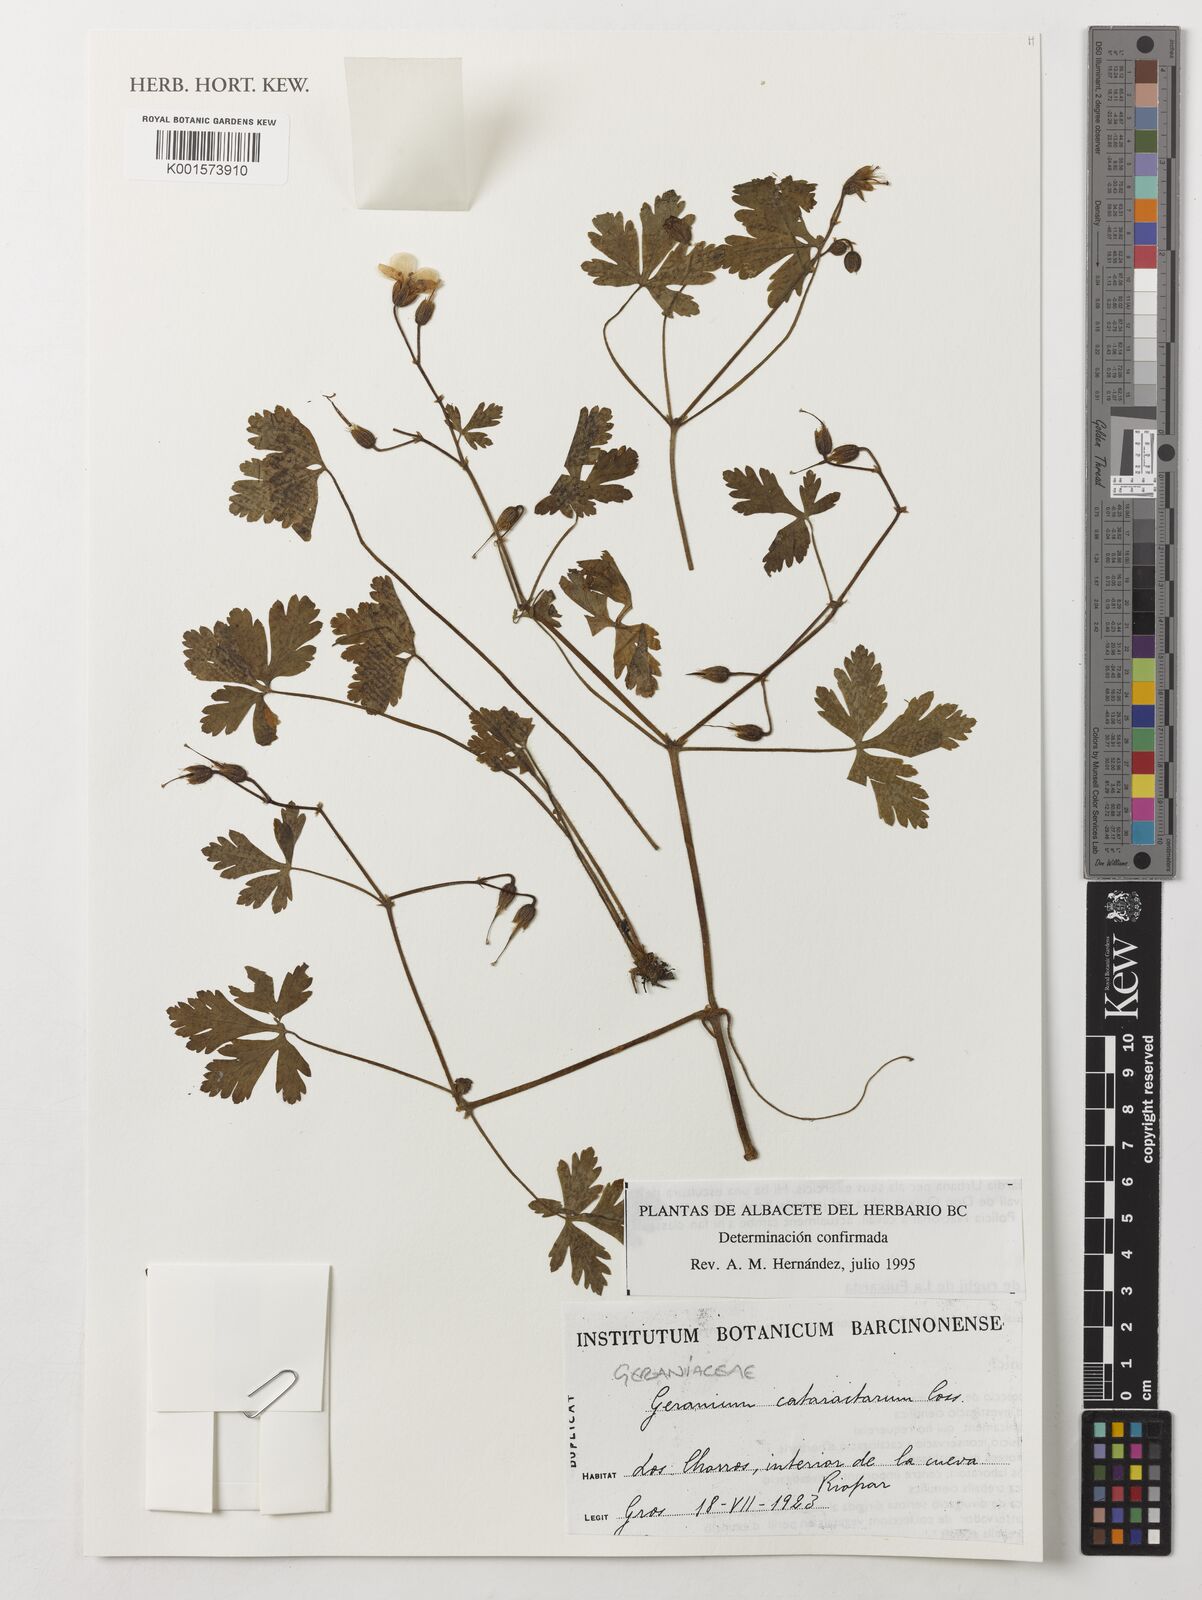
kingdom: Plantae
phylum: Tracheophyta
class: Magnoliopsida
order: Geraniales
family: Geraniaceae
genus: Geranium
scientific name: Geranium cataractarum
